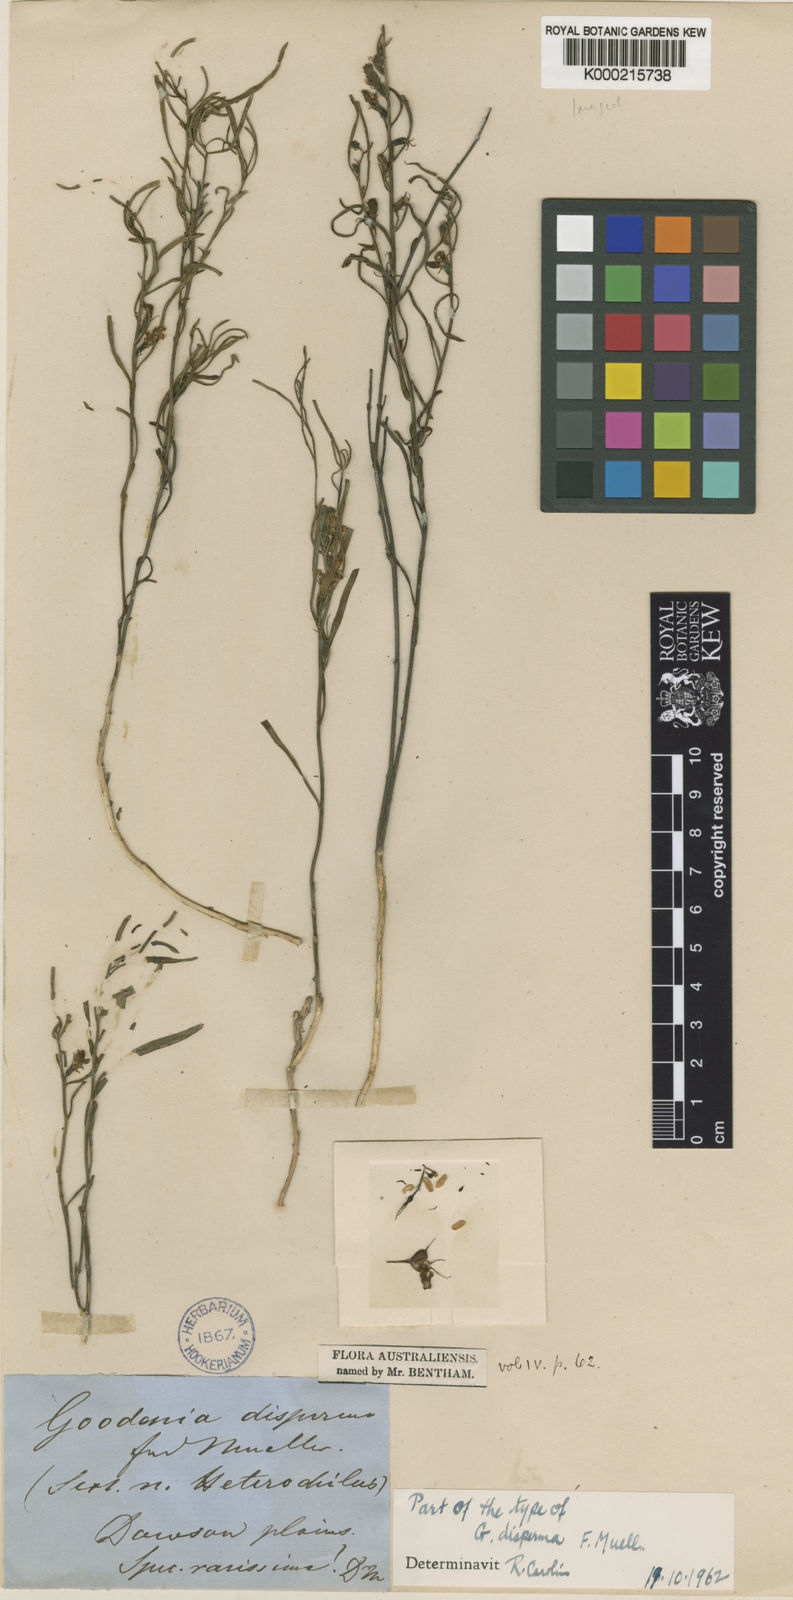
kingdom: Plantae
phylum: Tracheophyta
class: Magnoliopsida
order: Asterales
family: Goodeniaceae
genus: Goodenia
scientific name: Goodenia disperma
